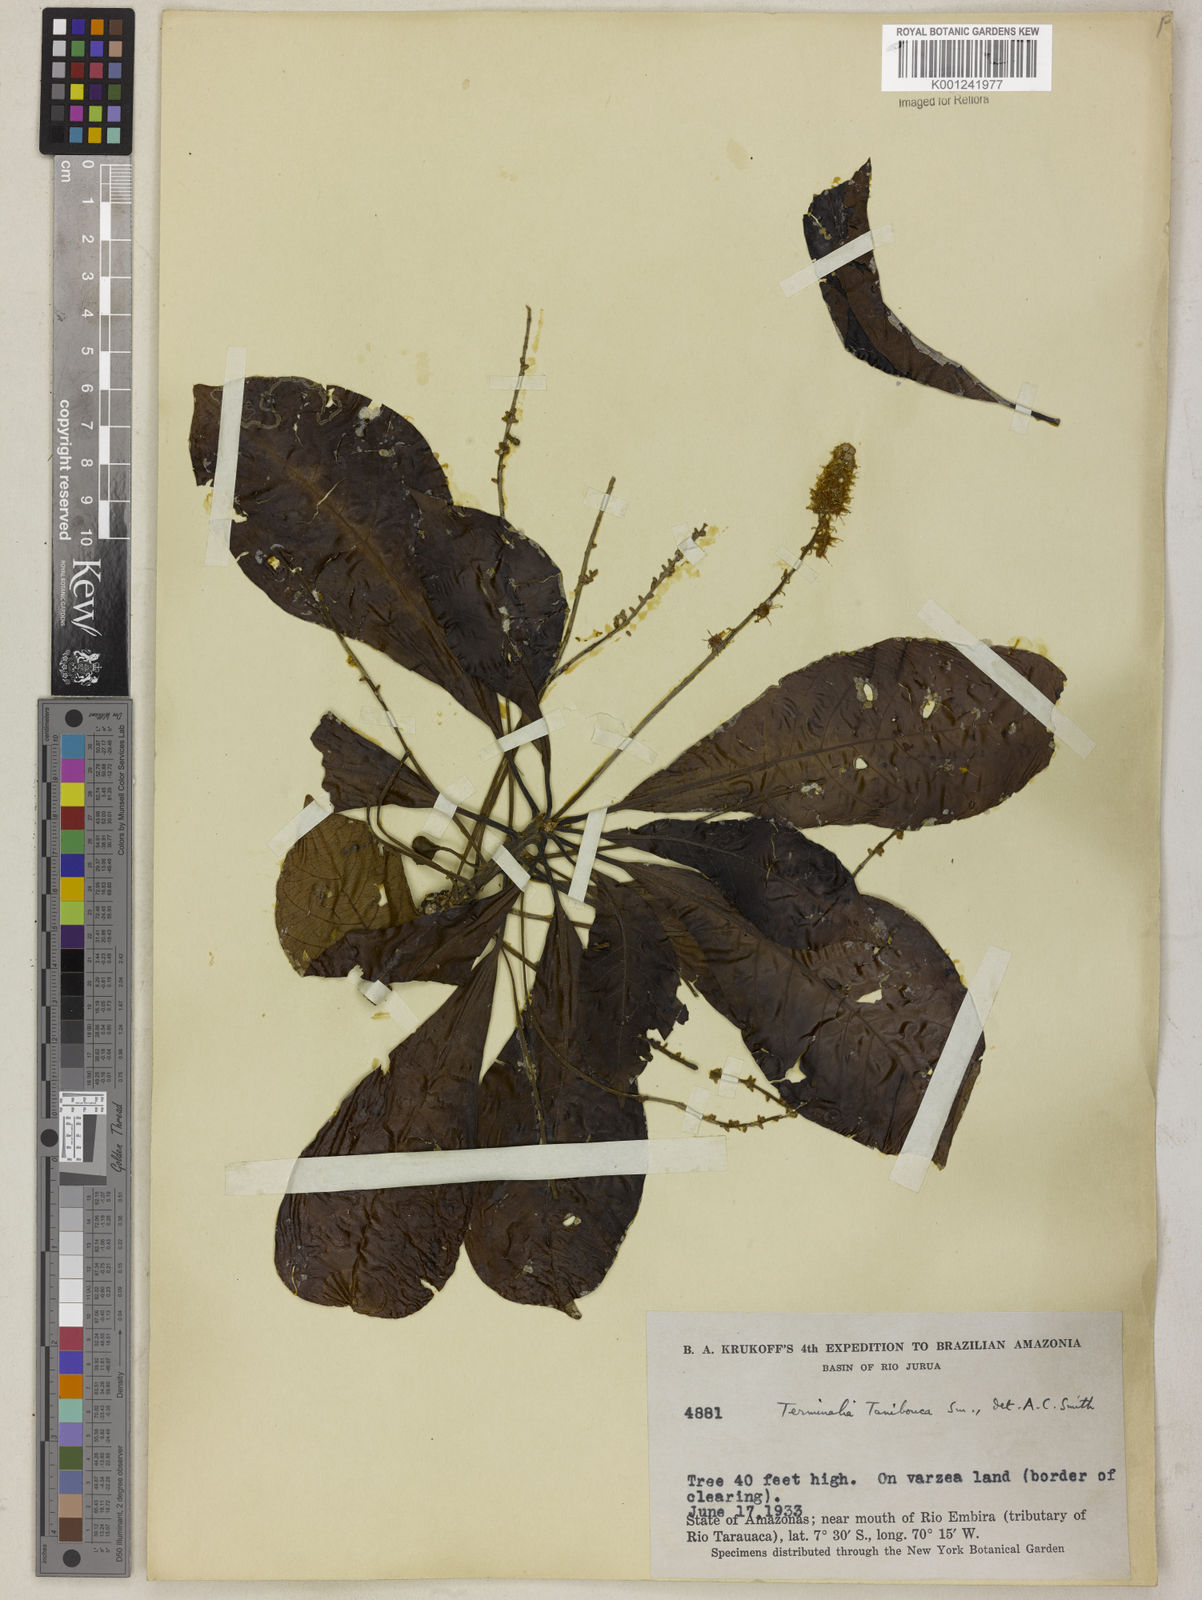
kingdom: Plantae
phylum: Tracheophyta
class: Magnoliopsida
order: Myrtales
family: Combretaceae
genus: Terminalia
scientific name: Terminalia dichotoma
